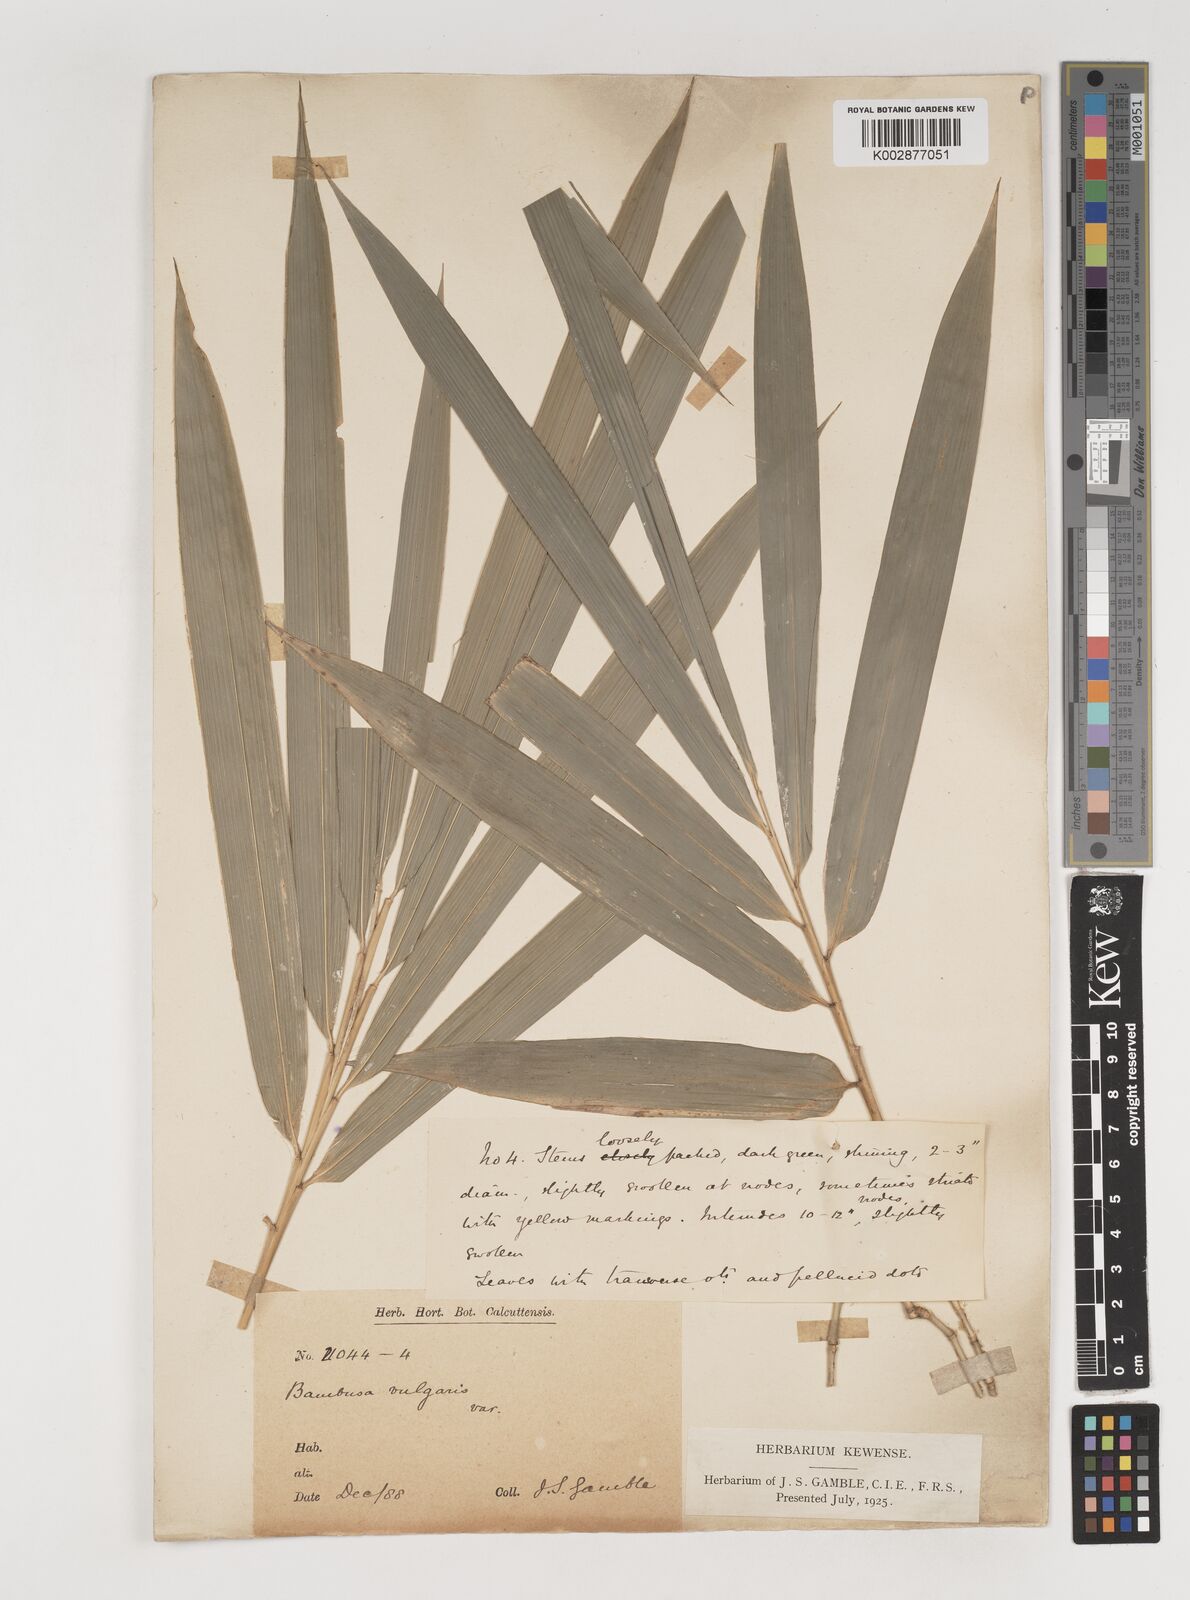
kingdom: Plantae
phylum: Tracheophyta
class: Liliopsida
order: Poales
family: Poaceae
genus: Bambusa
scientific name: Bambusa vulgaris
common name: Common bamboo
